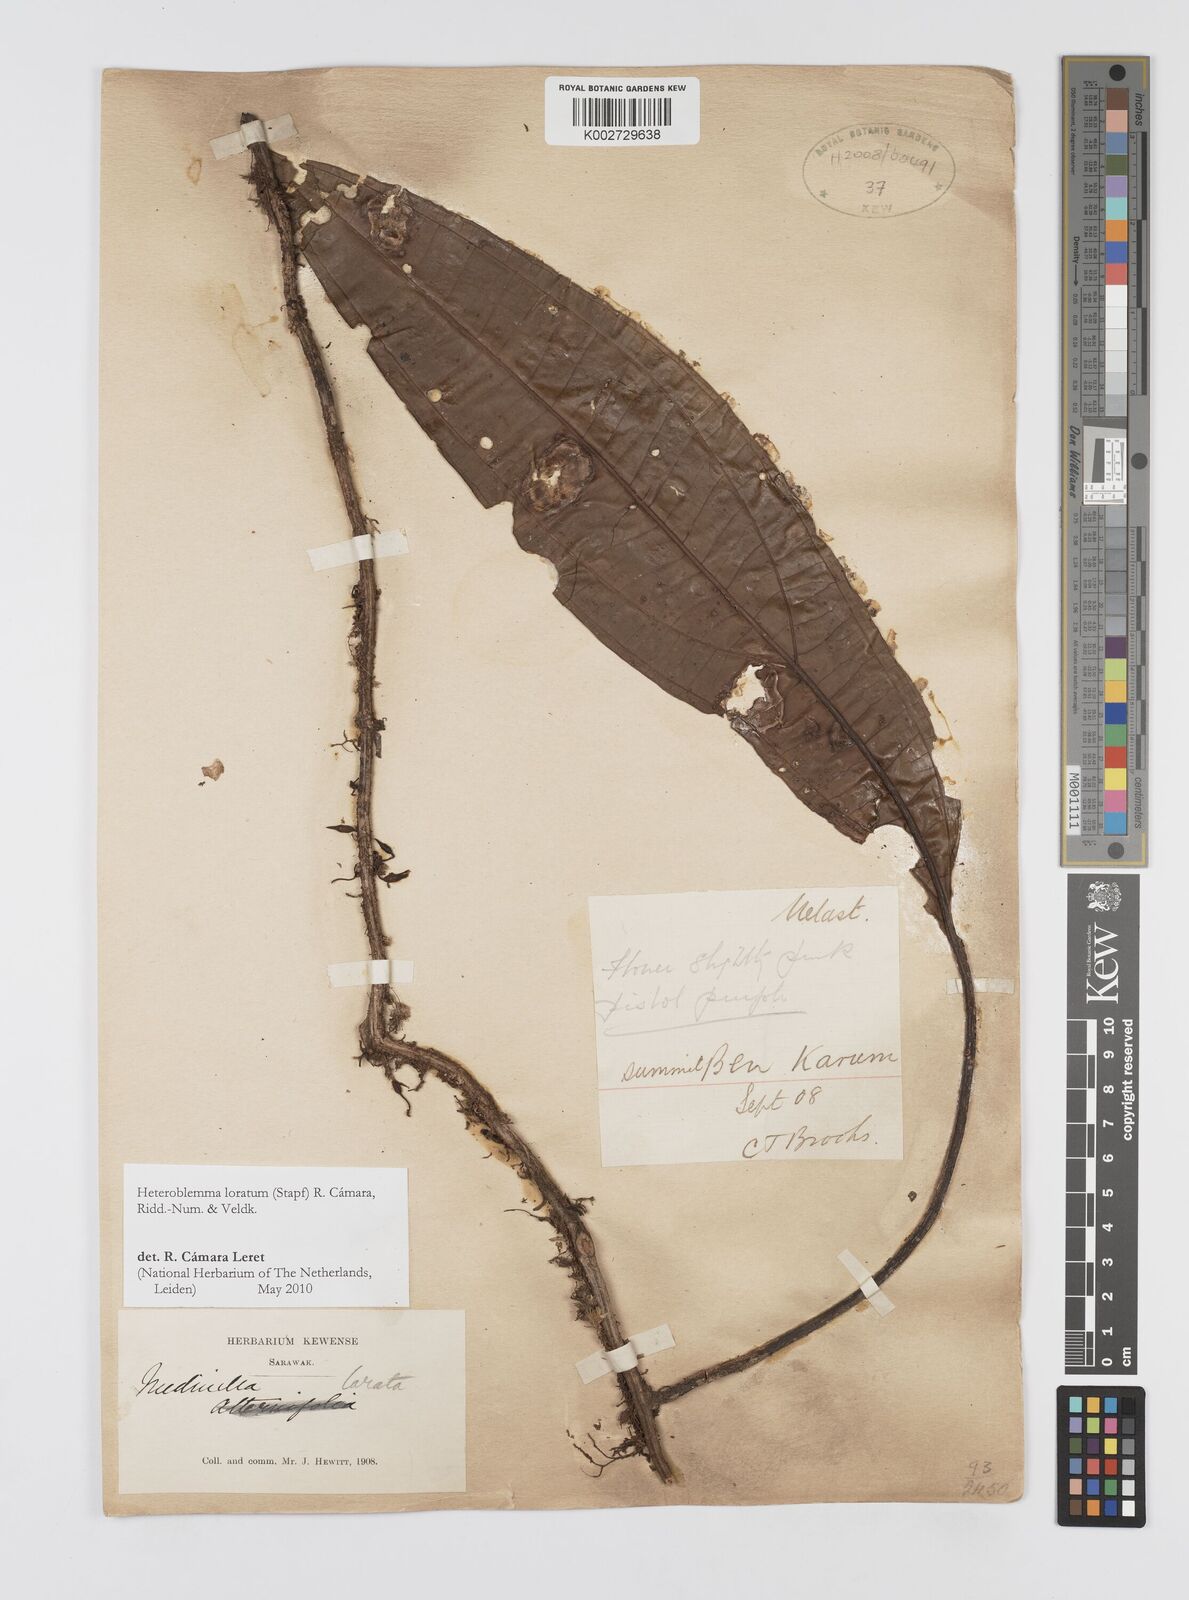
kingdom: Plantae
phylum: Tracheophyta
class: Magnoliopsida
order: Myrtales
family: Melastomataceae
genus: Heteroblemma
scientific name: Heteroblemma loratum
